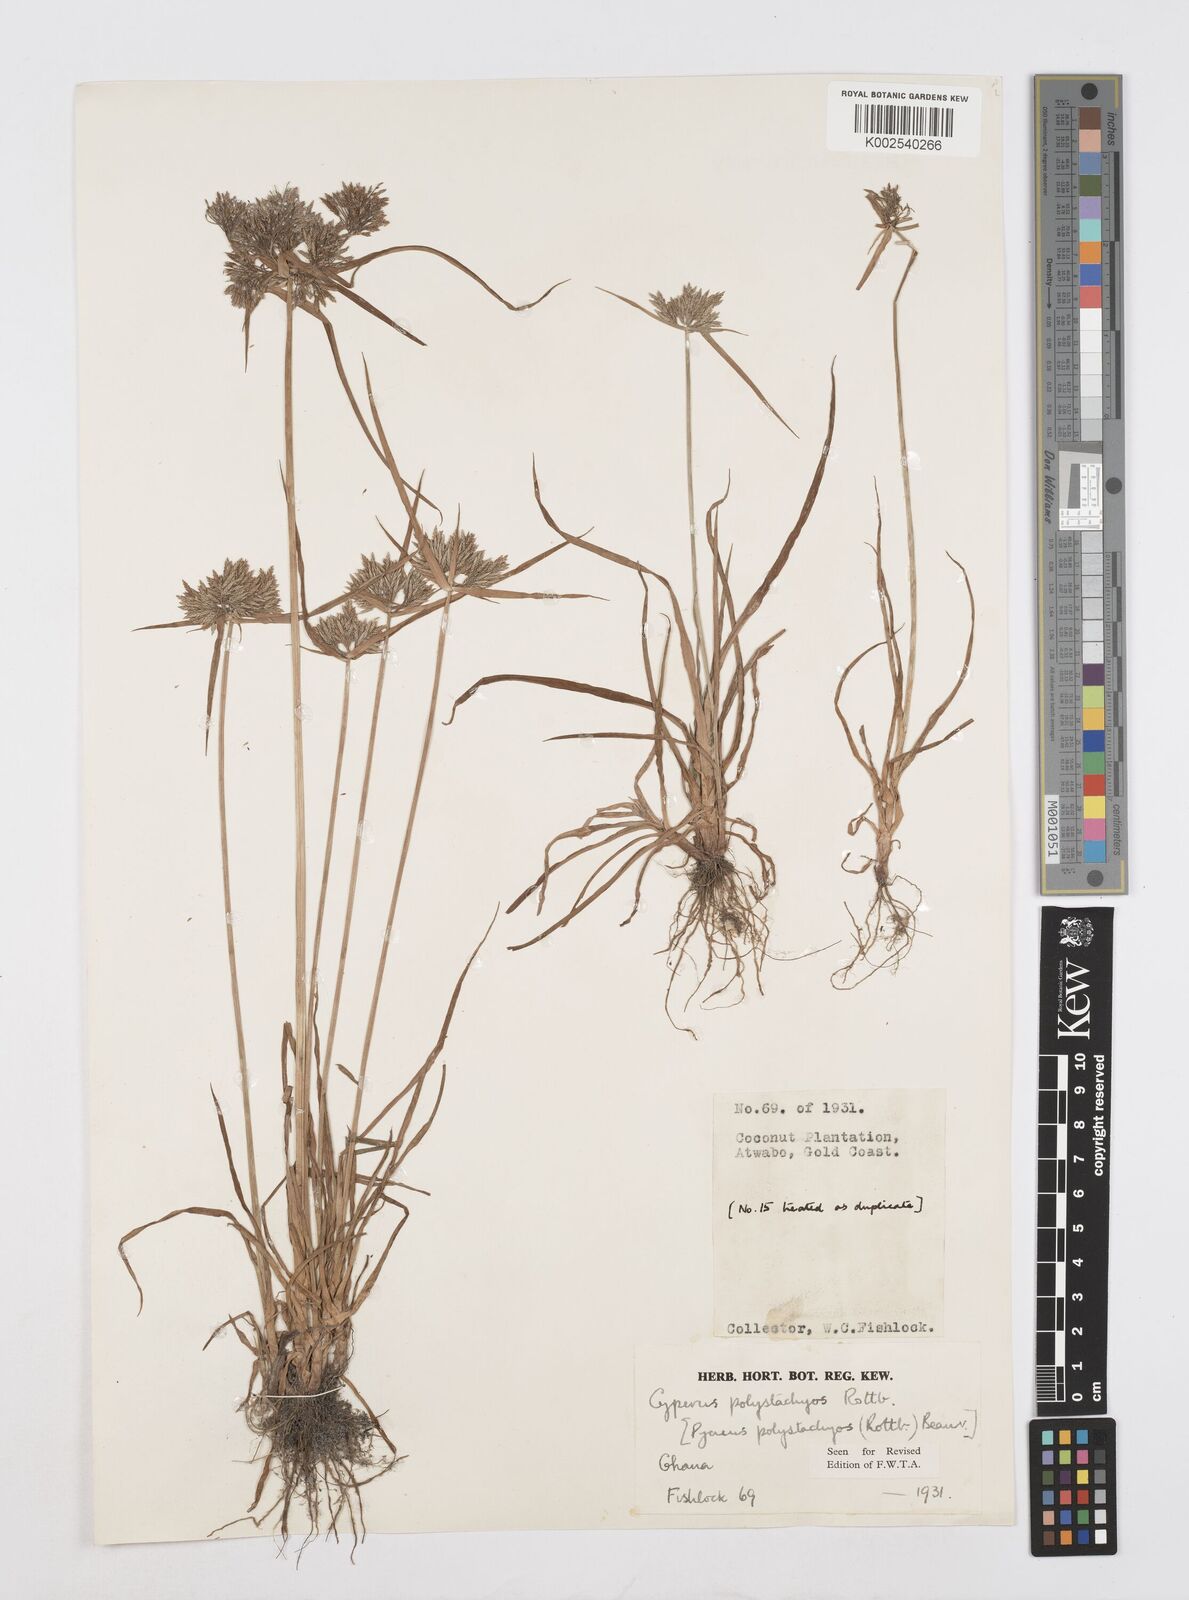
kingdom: Plantae
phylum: Tracheophyta
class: Liliopsida
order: Poales
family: Cyperaceae
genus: Cyperus
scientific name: Cyperus polystachyos
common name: Bunchy flat sedge
